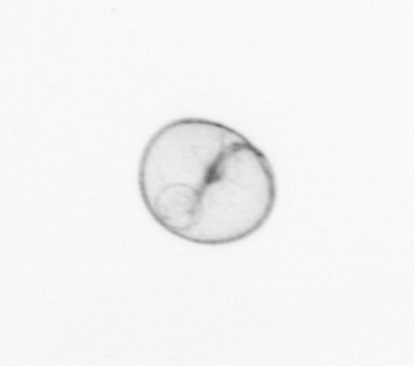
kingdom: Chromista
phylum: Myzozoa
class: Dinophyceae
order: Noctilucales
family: Noctilucaceae
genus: Noctiluca
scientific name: Noctiluca scintillans
